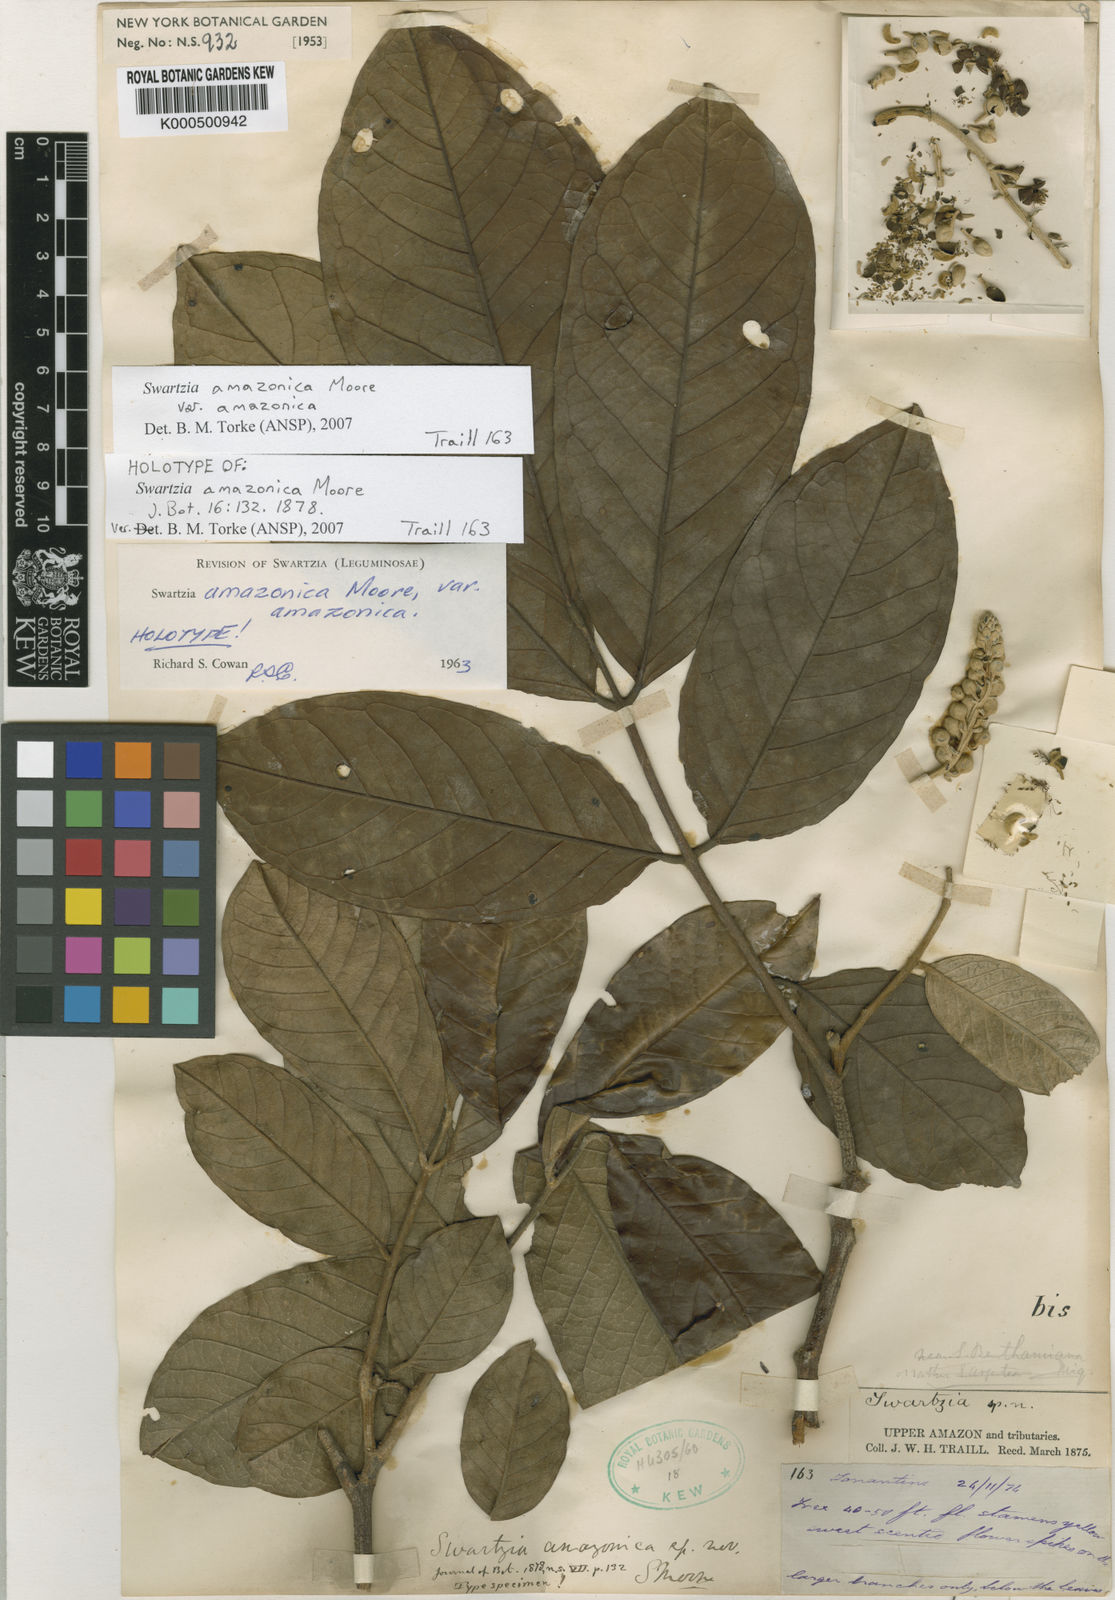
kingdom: Plantae
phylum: Tracheophyta
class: Magnoliopsida
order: Fabales
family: Fabaceae
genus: Swartzia
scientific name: Swartzia amazonica
